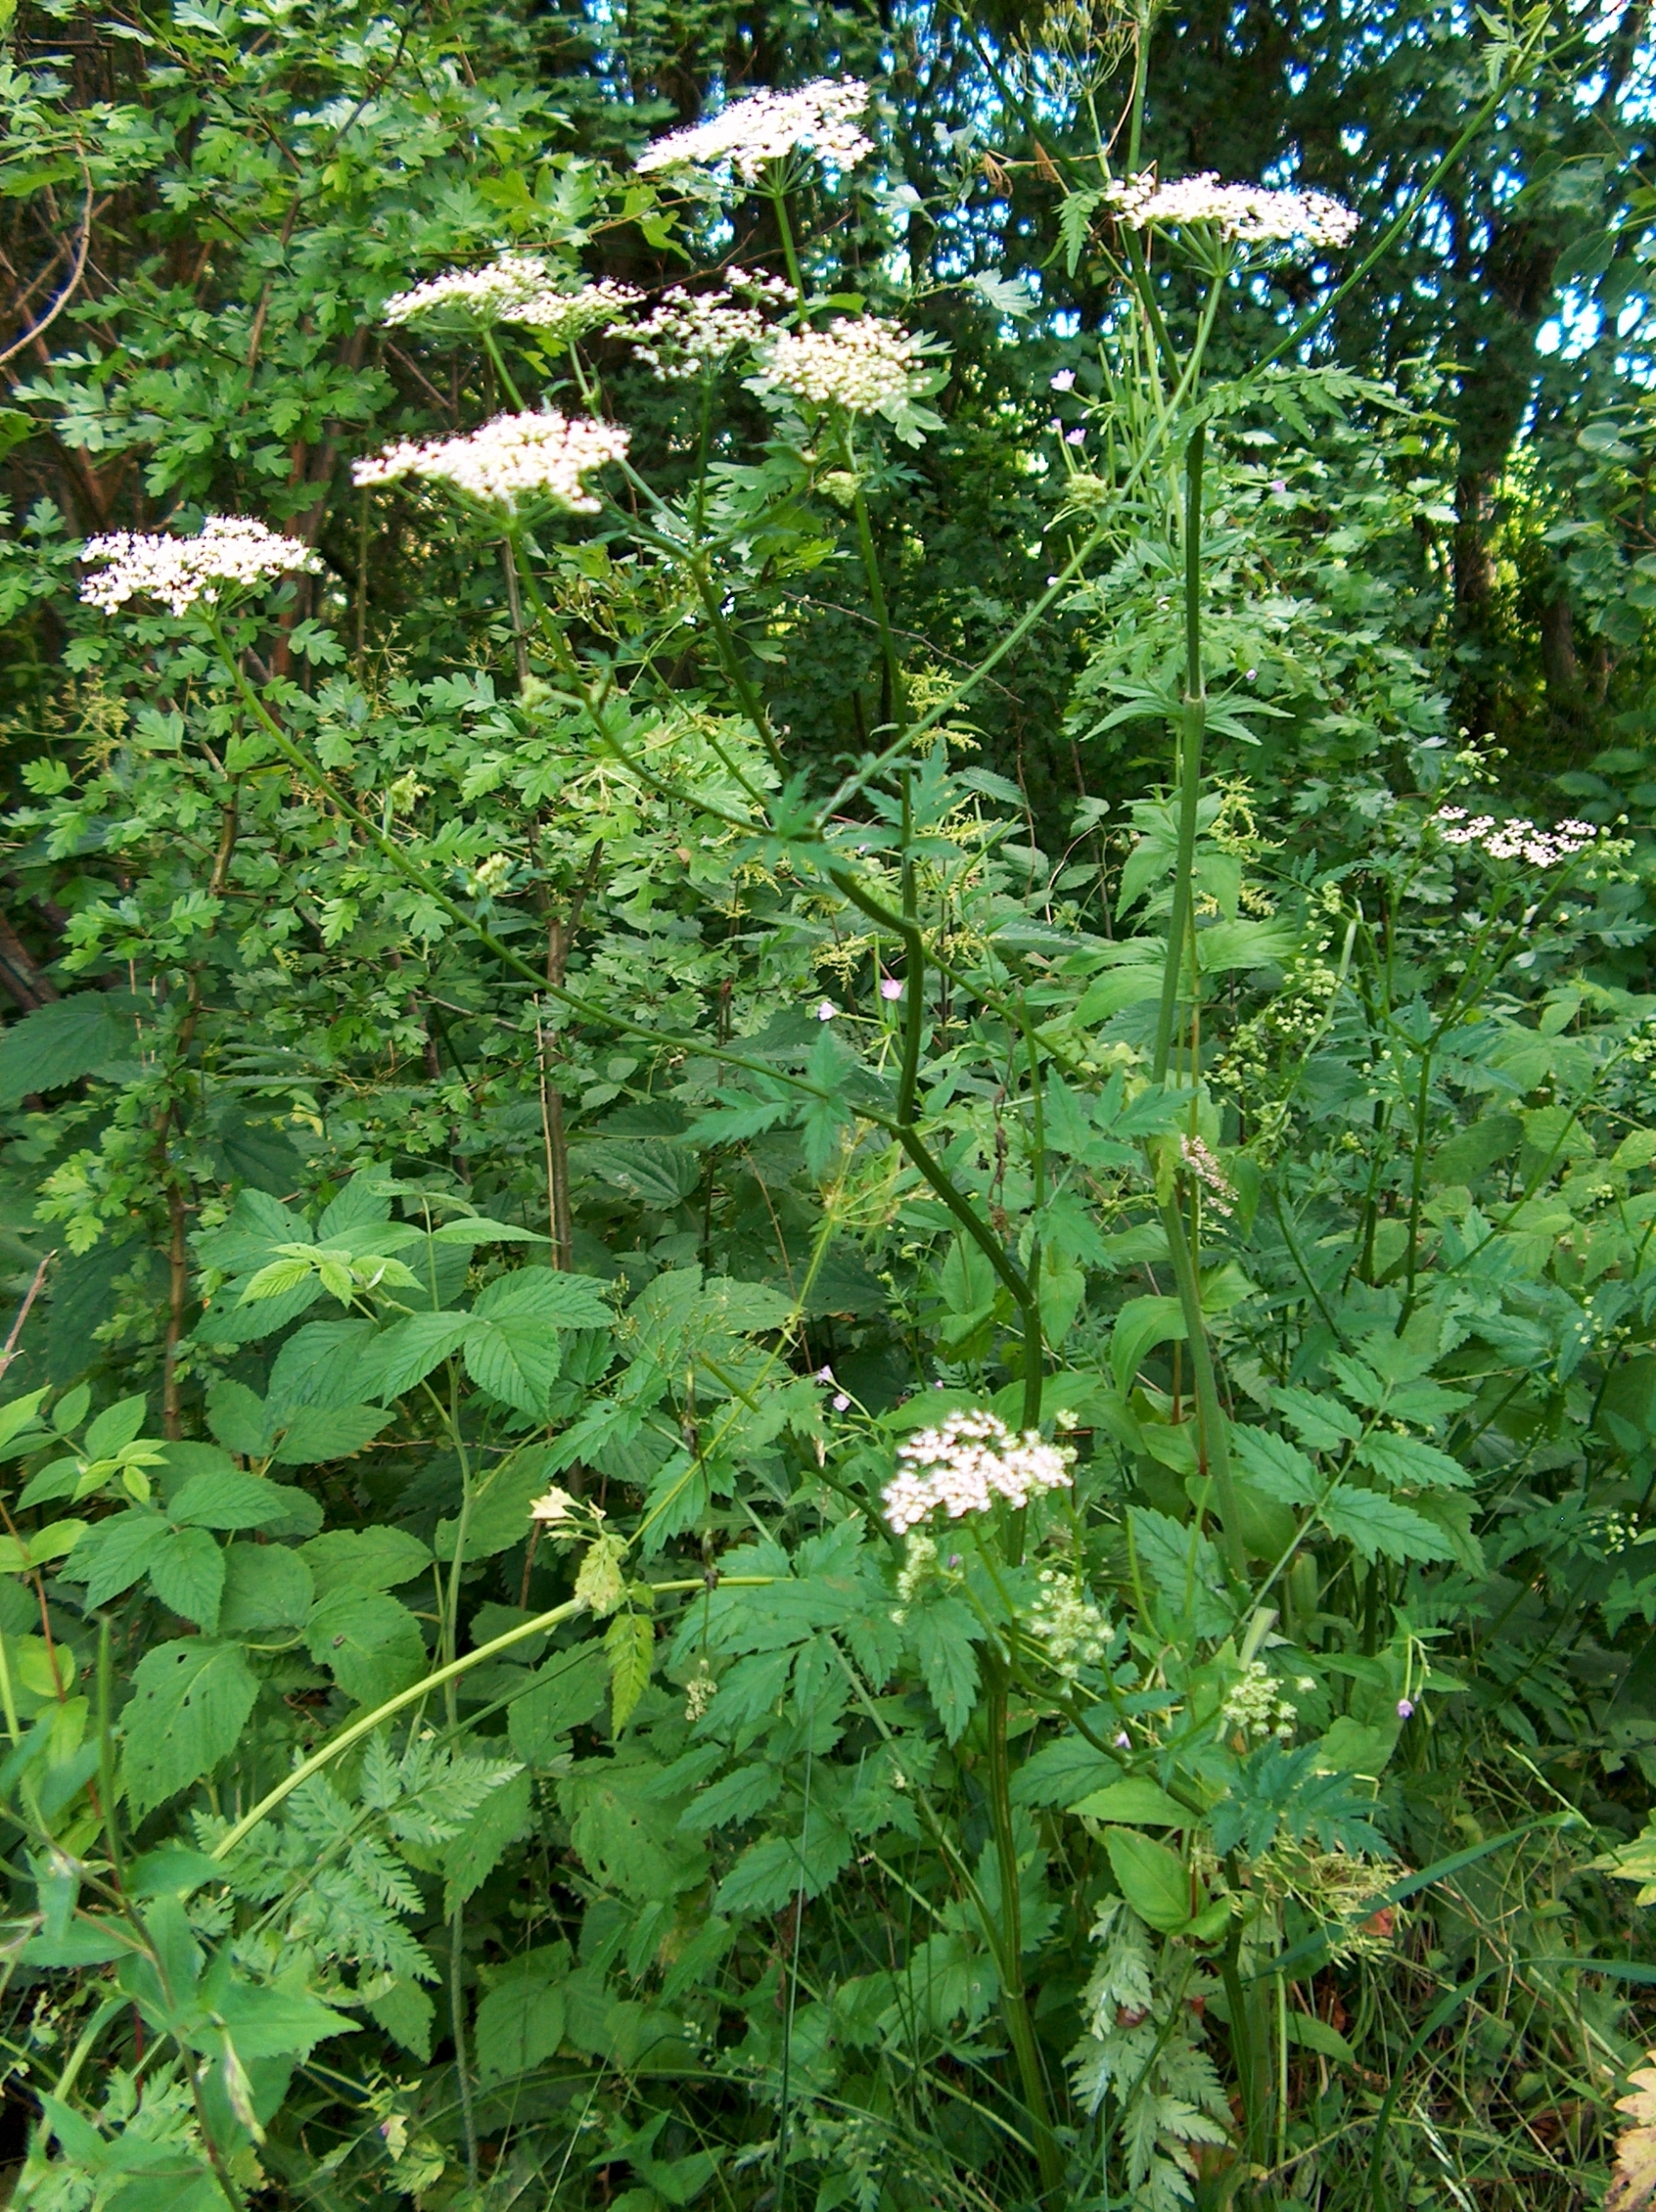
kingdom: Plantae
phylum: Tracheophyta
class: Magnoliopsida
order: Apiales
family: Apiaceae
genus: Pimpinella
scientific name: Pimpinella major
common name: Stor pimpinelle
